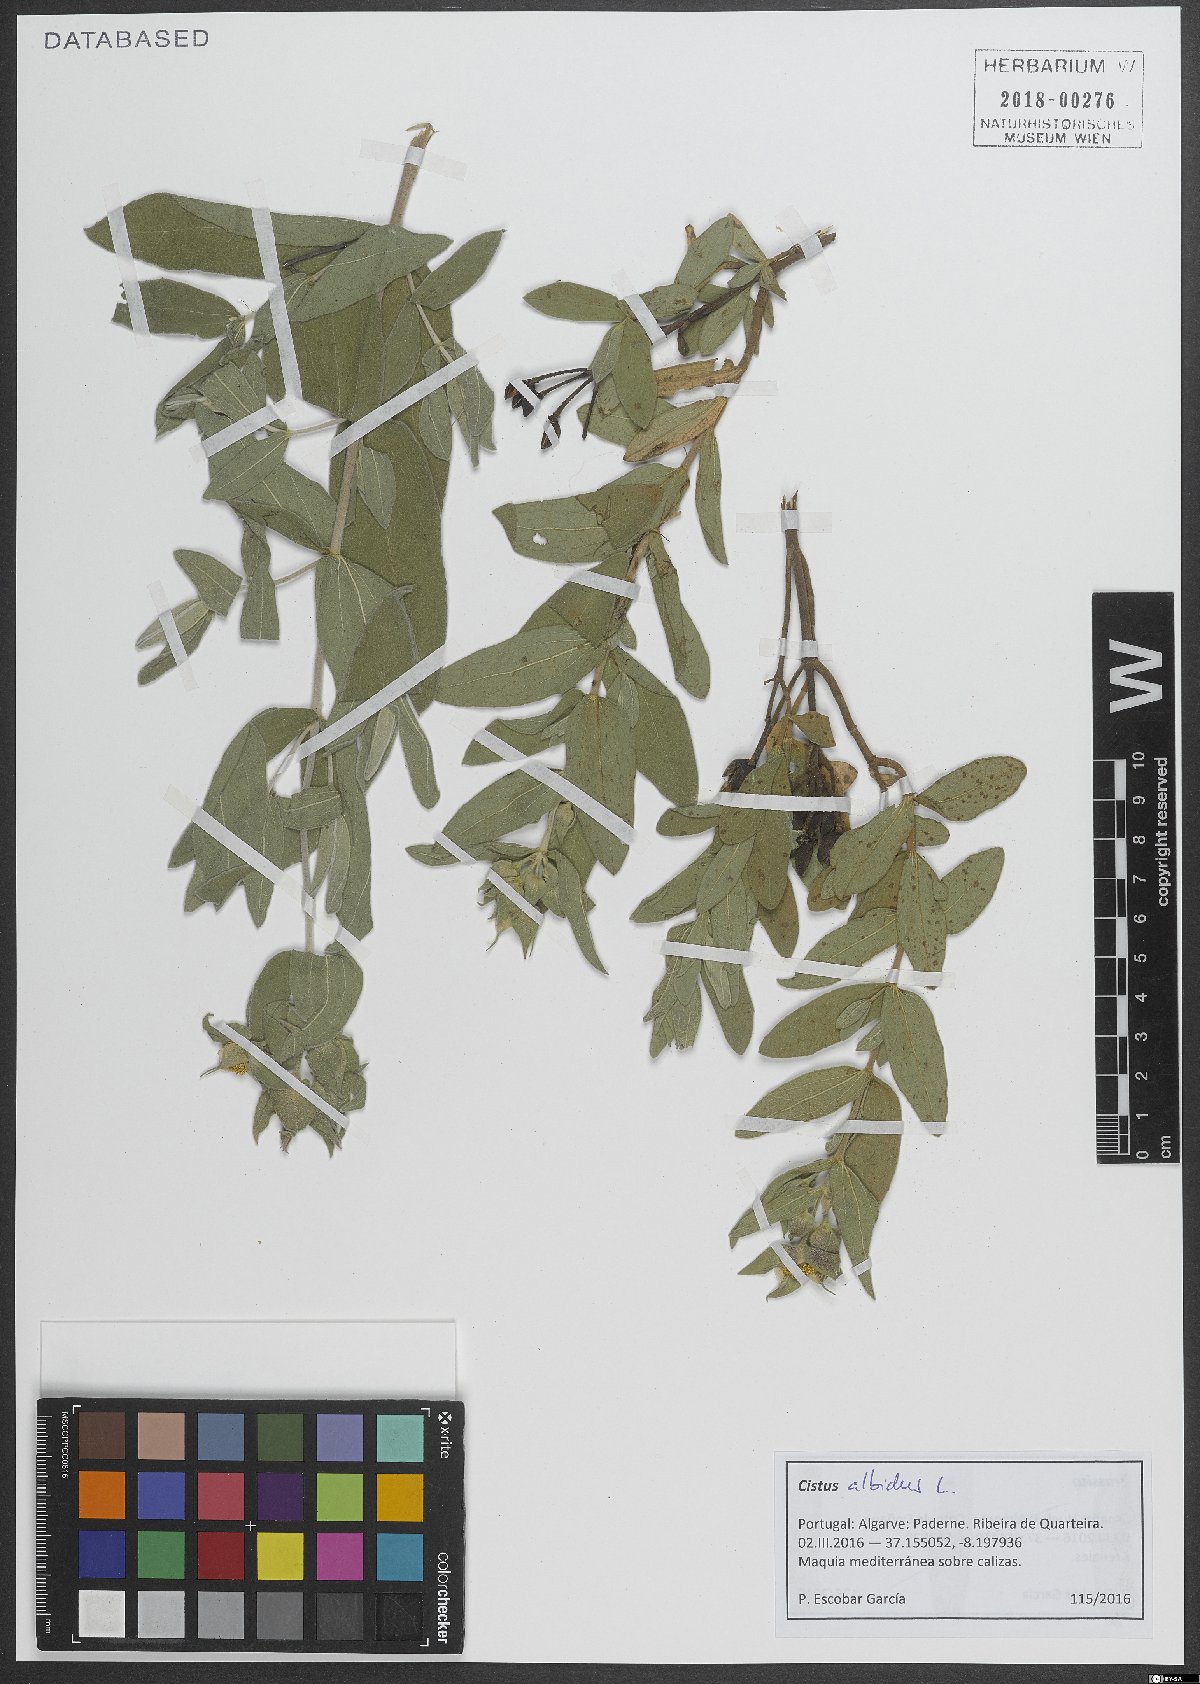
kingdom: Plantae
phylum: Tracheophyta
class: Magnoliopsida
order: Malvales
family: Cistaceae
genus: Cistus
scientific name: Cistus albidus
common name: White-leaf rock-rose
